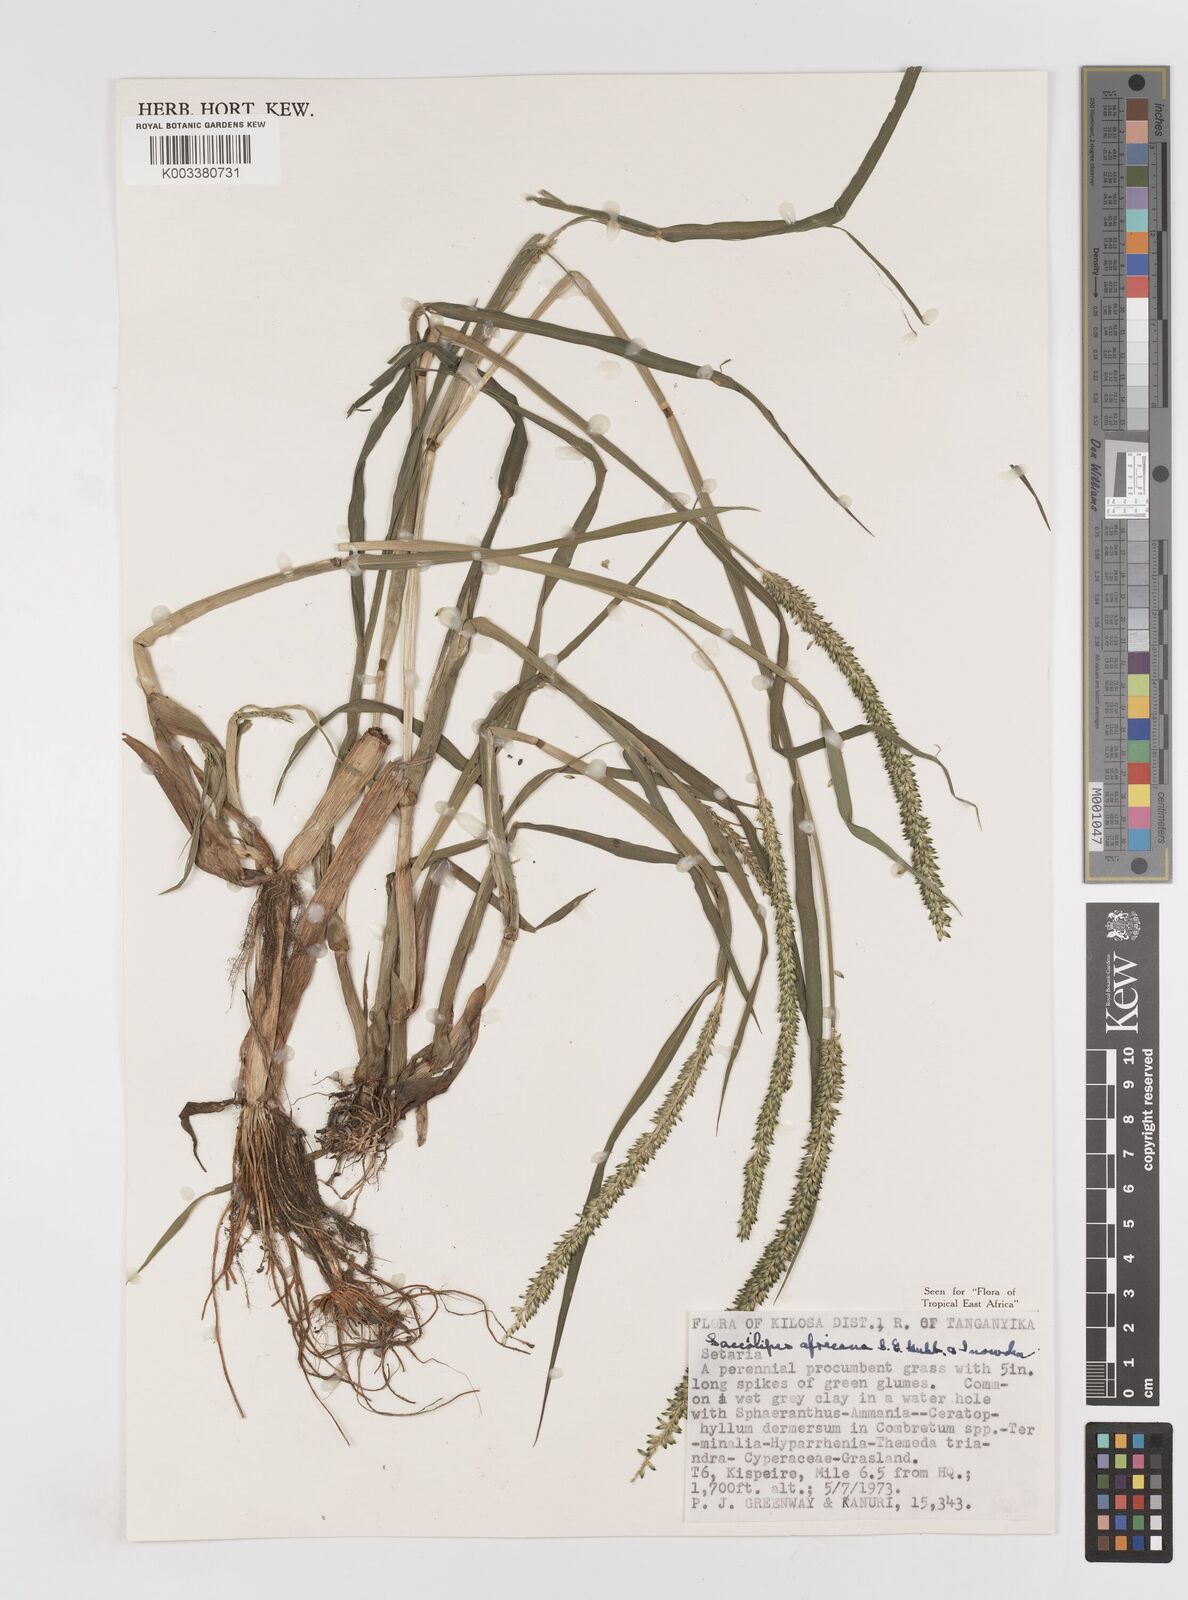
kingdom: Plantae
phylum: Tracheophyta
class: Liliopsida
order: Poales
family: Poaceae
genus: Sacciolepis
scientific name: Sacciolepis africana
